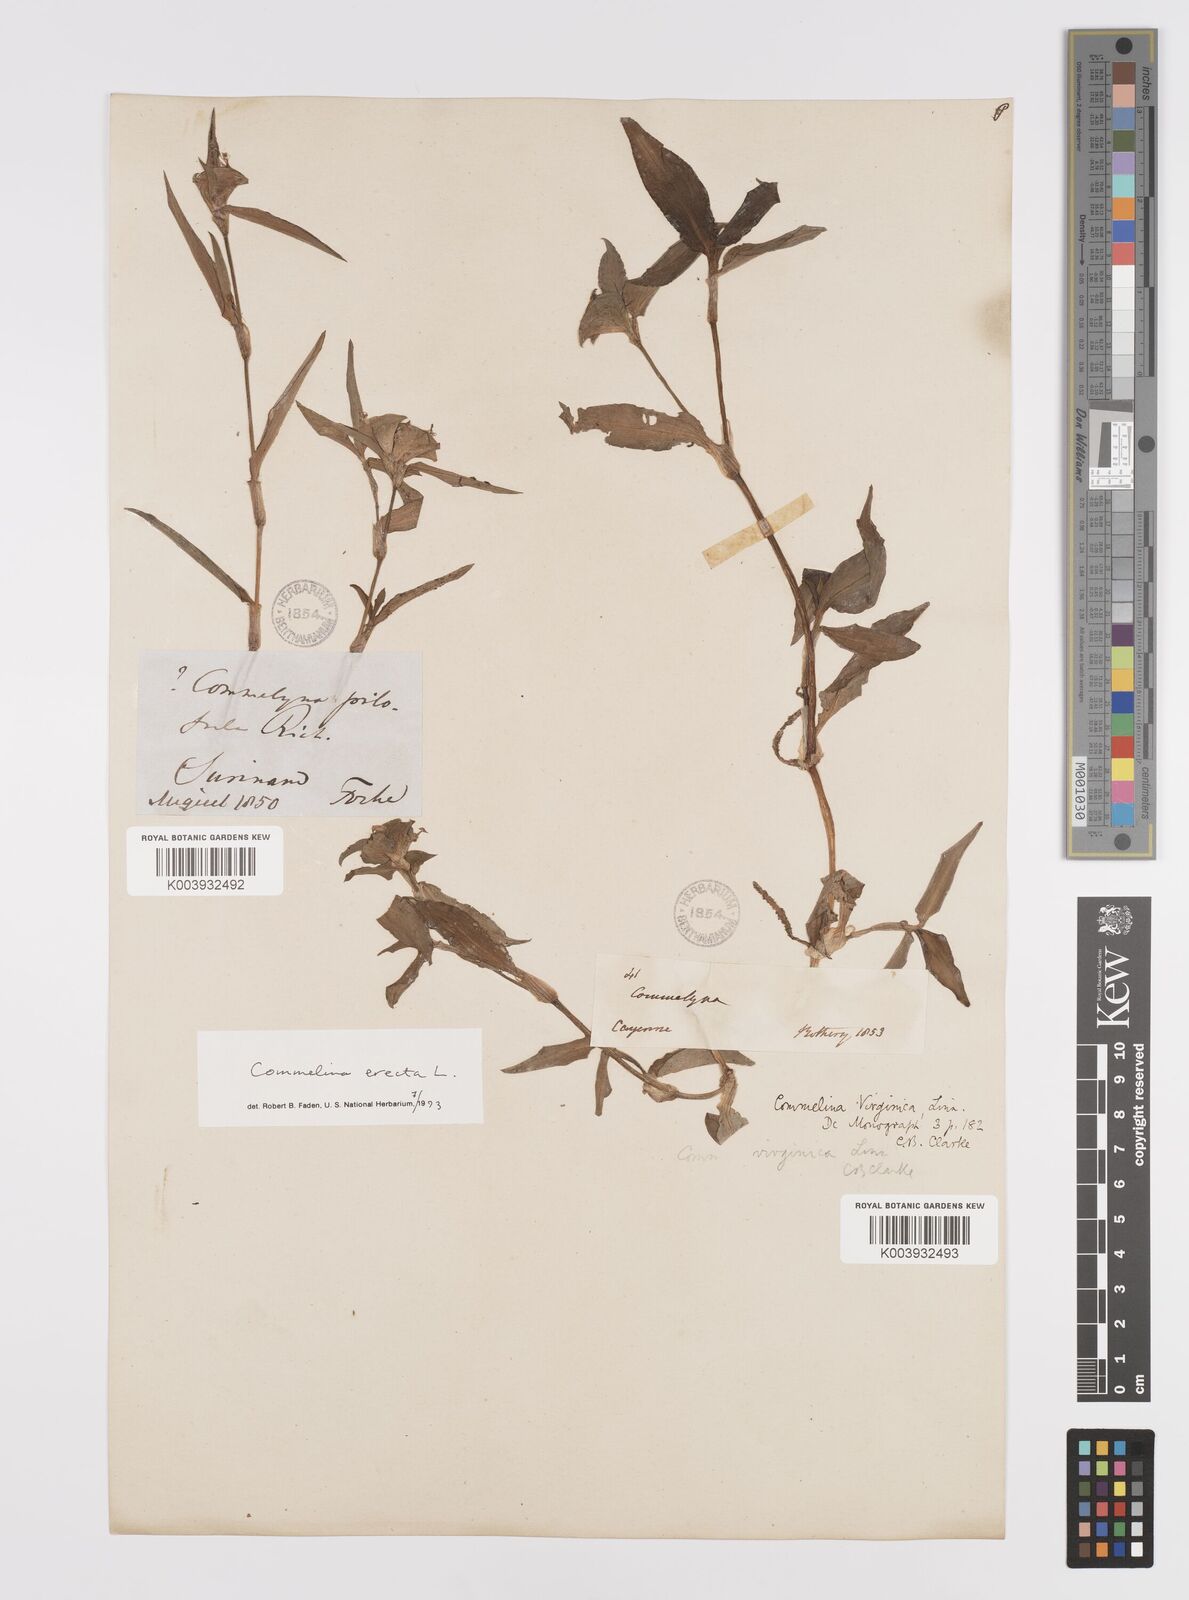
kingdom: Plantae
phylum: Tracheophyta
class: Liliopsida
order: Commelinales
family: Commelinaceae
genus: Commelina
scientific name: Commelina erecta
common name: Blousel blommetjie
